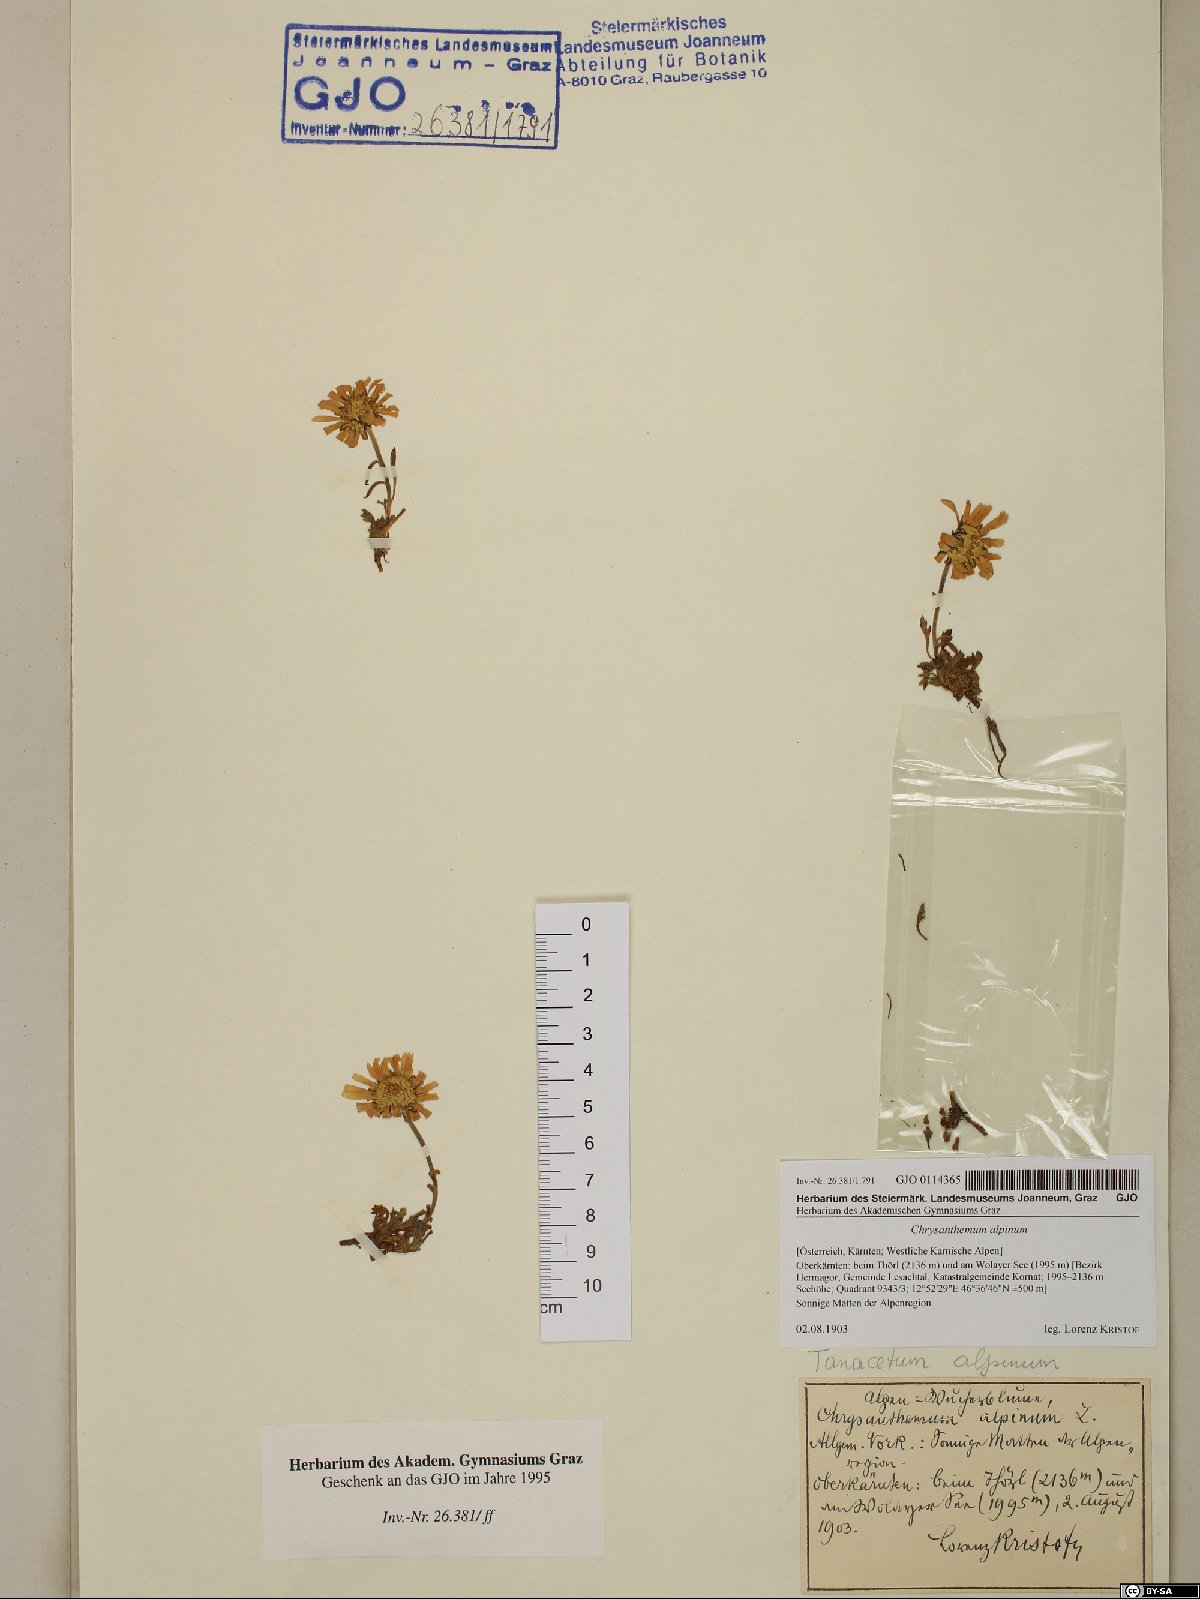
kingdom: Plantae
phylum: Tracheophyta
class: Magnoliopsida
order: Asterales
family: Asteraceae
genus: Leucanthemopsis
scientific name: Leucanthemopsis alpina
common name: Alpine moon daisy
